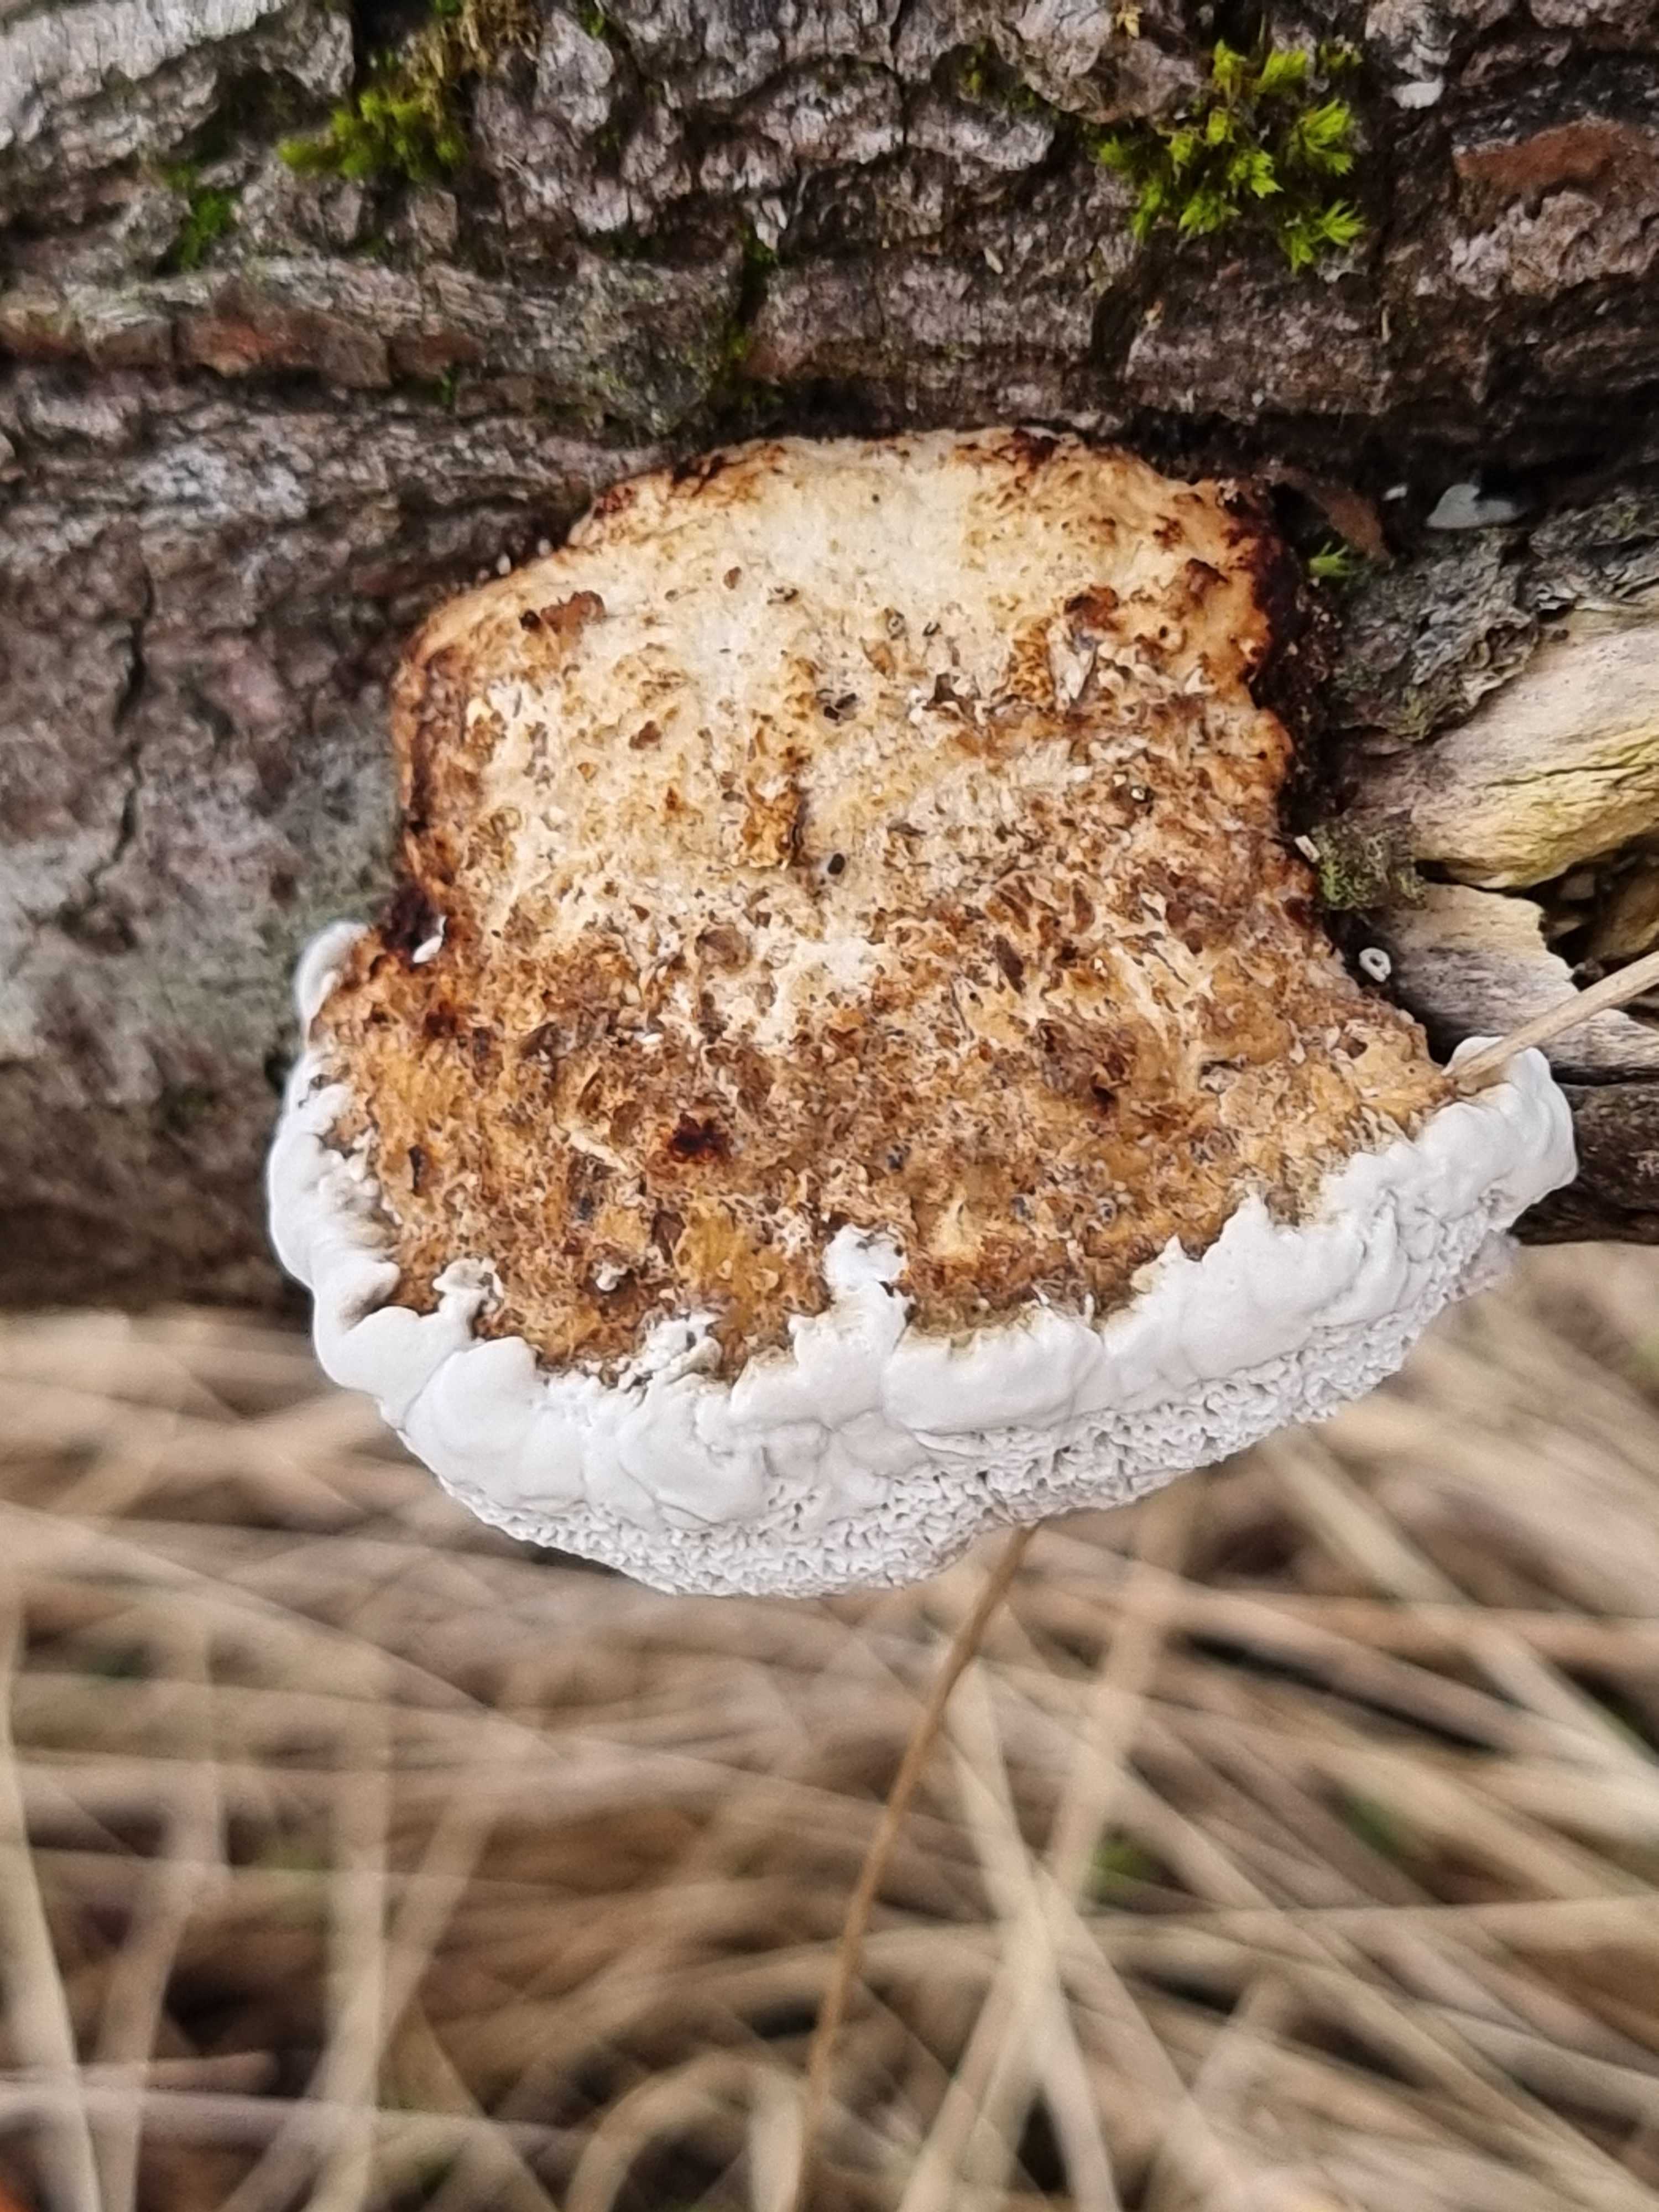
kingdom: Fungi
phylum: Basidiomycota
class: Agaricomycetes
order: Polyporales
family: Polyporaceae
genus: Daedaleopsis
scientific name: Daedaleopsis confragosa
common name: rødmende læderporesvamp
